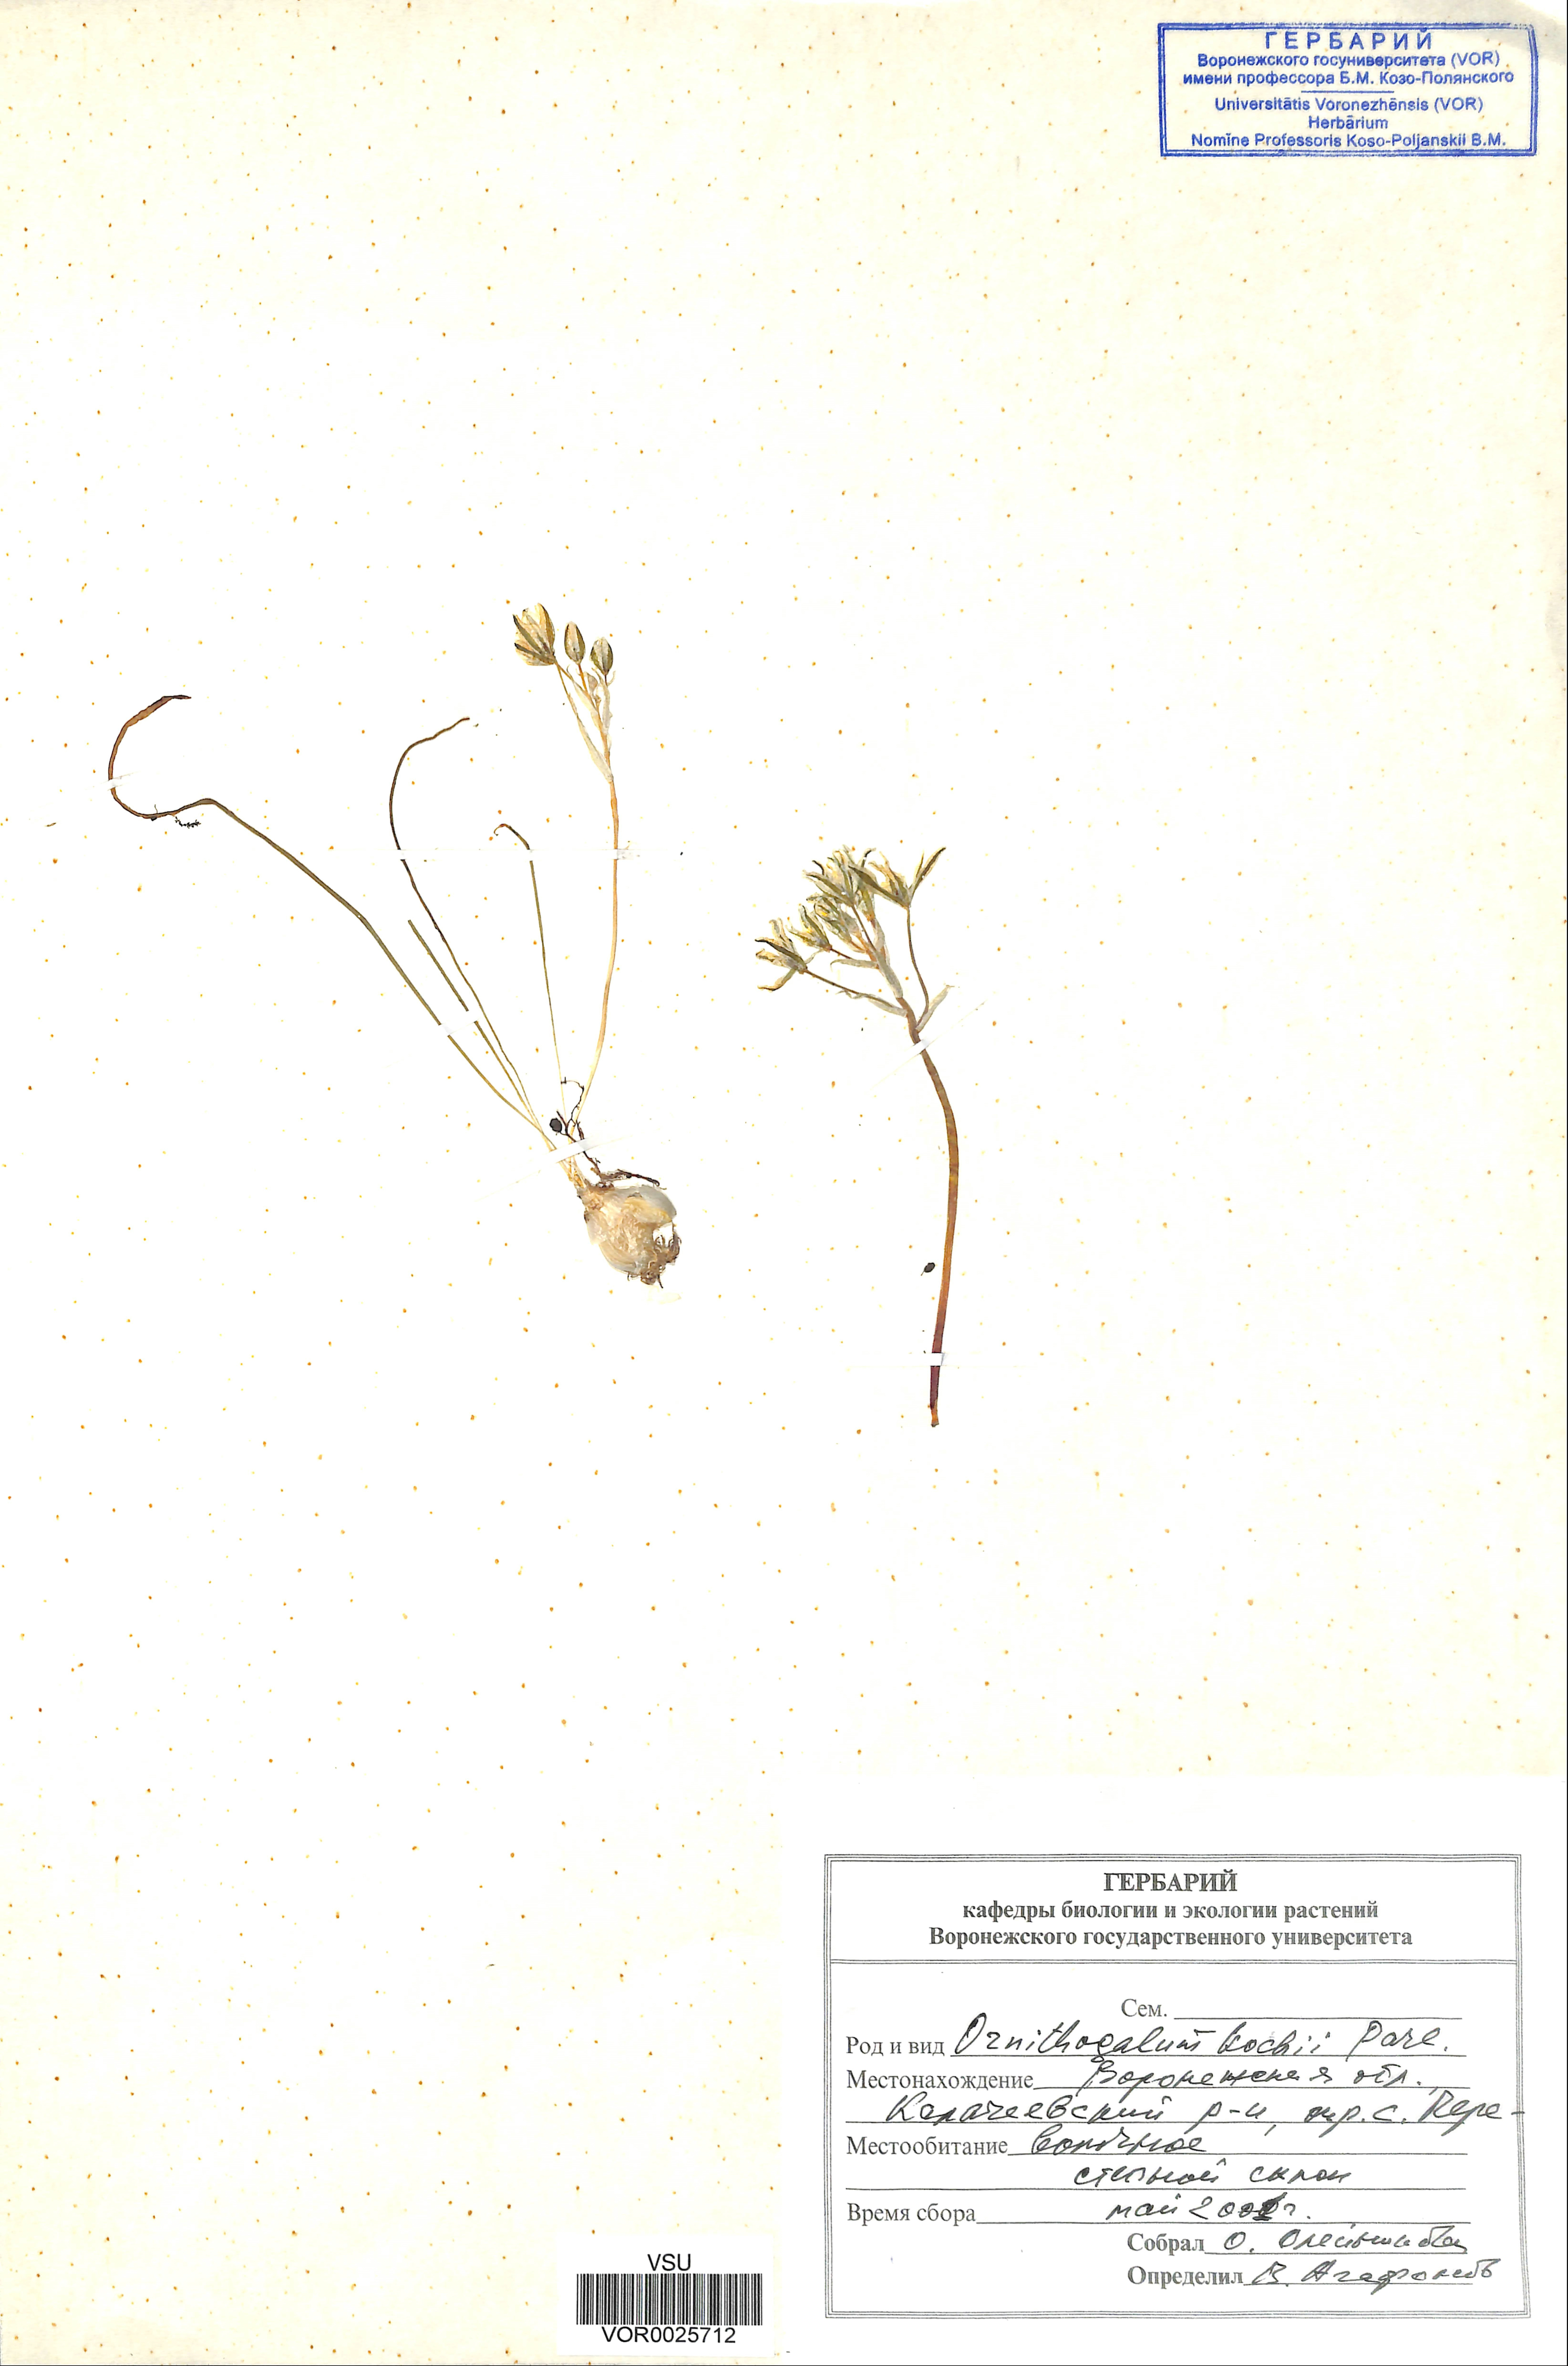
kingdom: Plantae
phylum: Tracheophyta
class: Liliopsida
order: Asparagales
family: Asparagaceae
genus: Ornithogalum
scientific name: Ornithogalum orthophyllum
